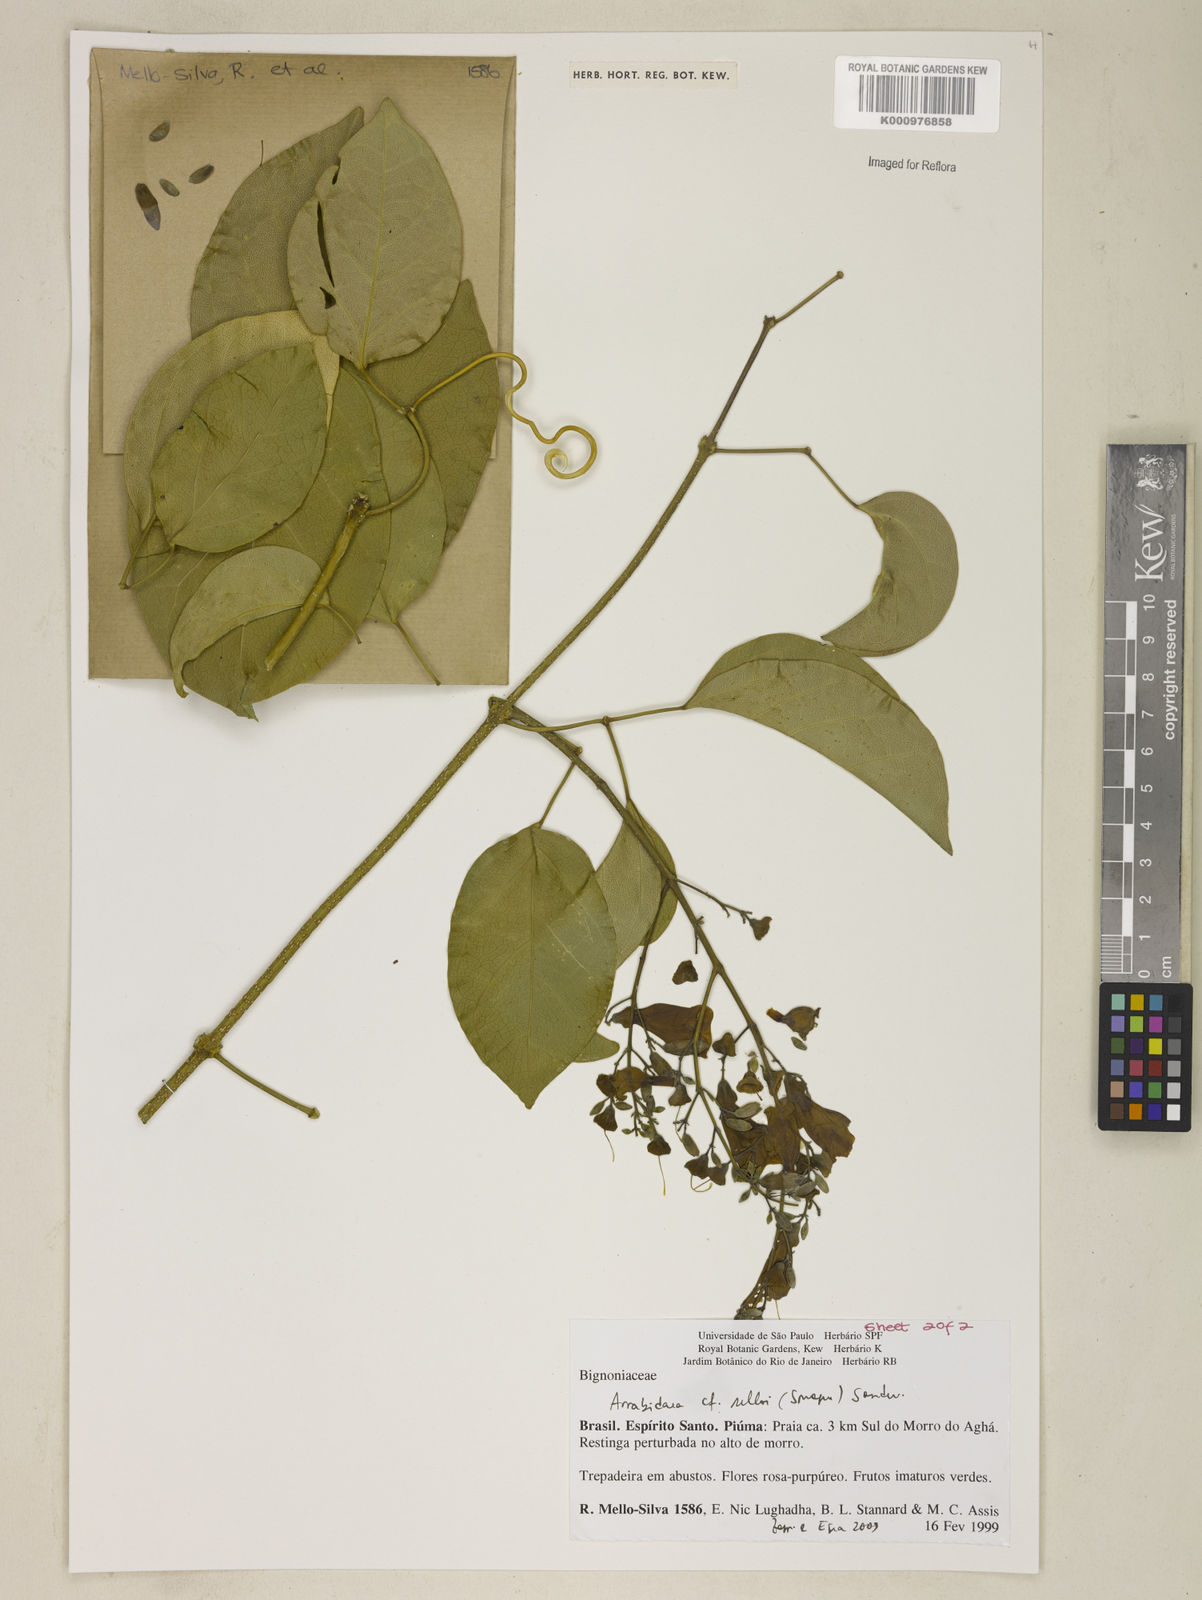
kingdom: Plantae
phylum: Tracheophyta
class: Magnoliopsida
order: Lamiales
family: Bignoniaceae
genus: Tanaecium
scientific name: Tanaecium selloi
